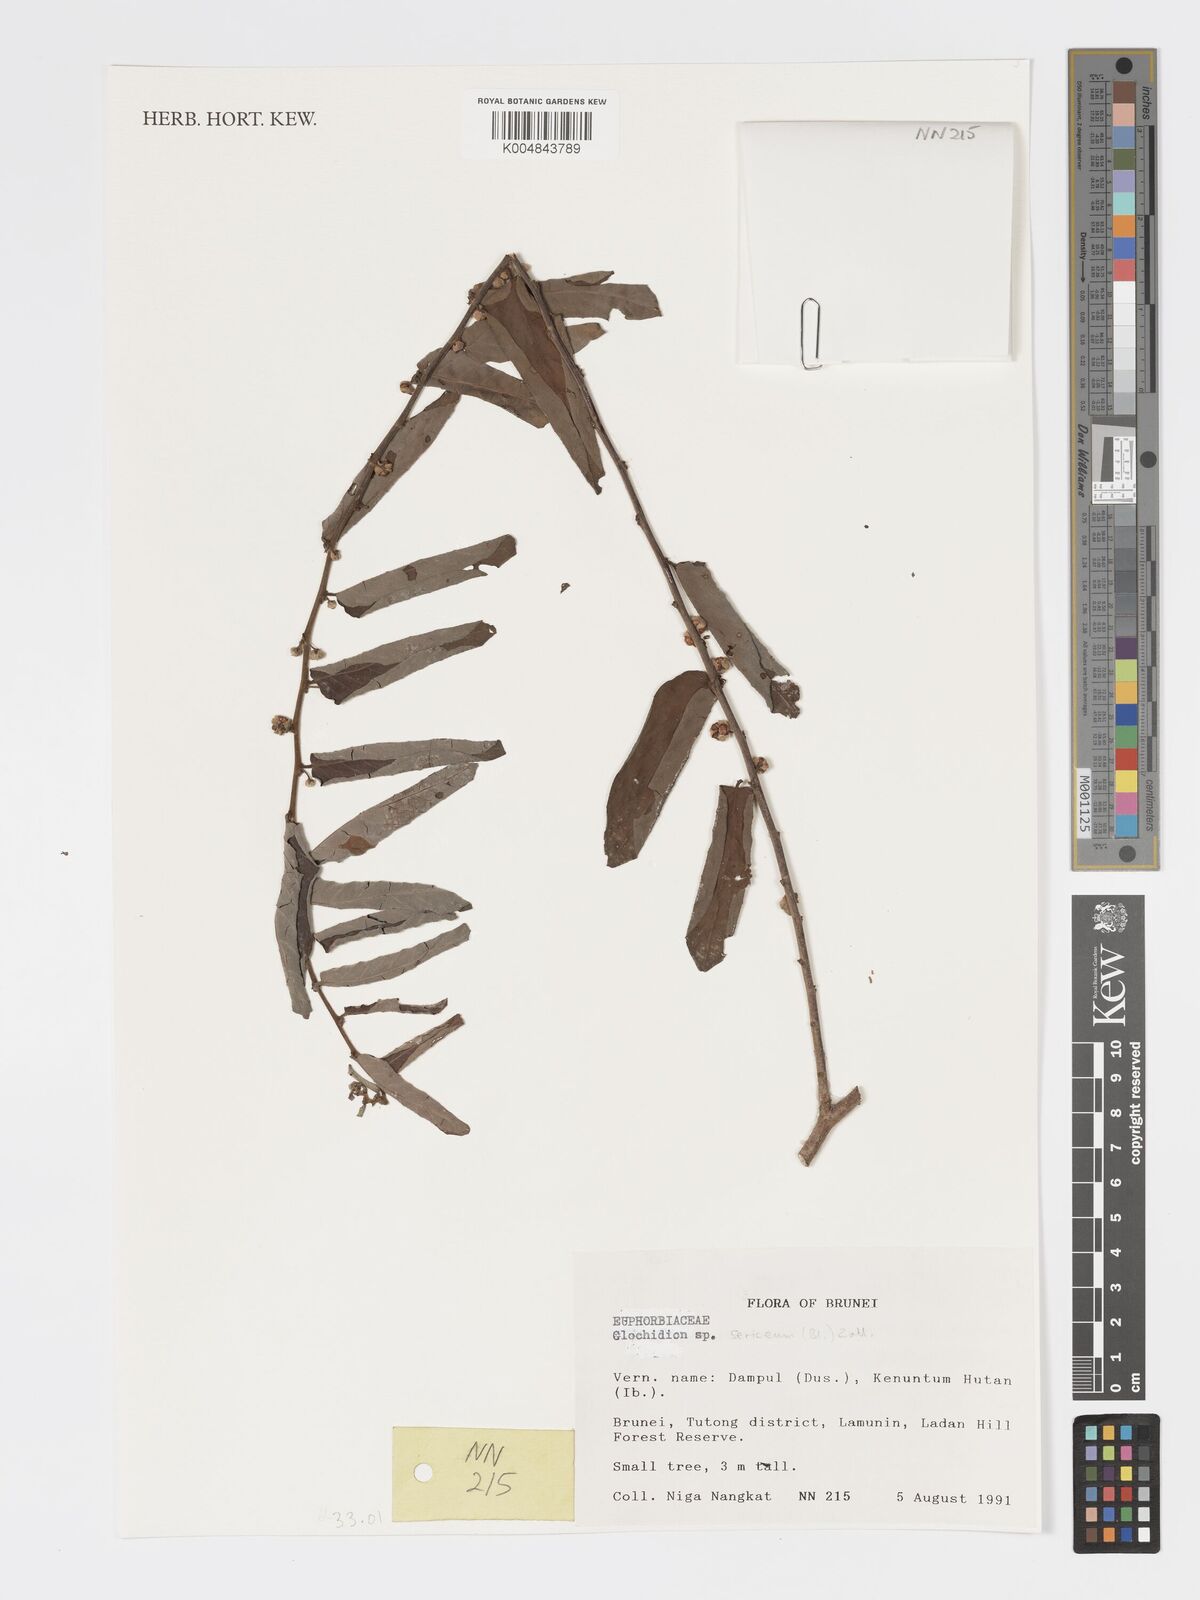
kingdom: Plantae
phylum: Tracheophyta
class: Magnoliopsida
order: Malpighiales
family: Phyllanthaceae
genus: Glochidion
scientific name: Glochidion sericeum
